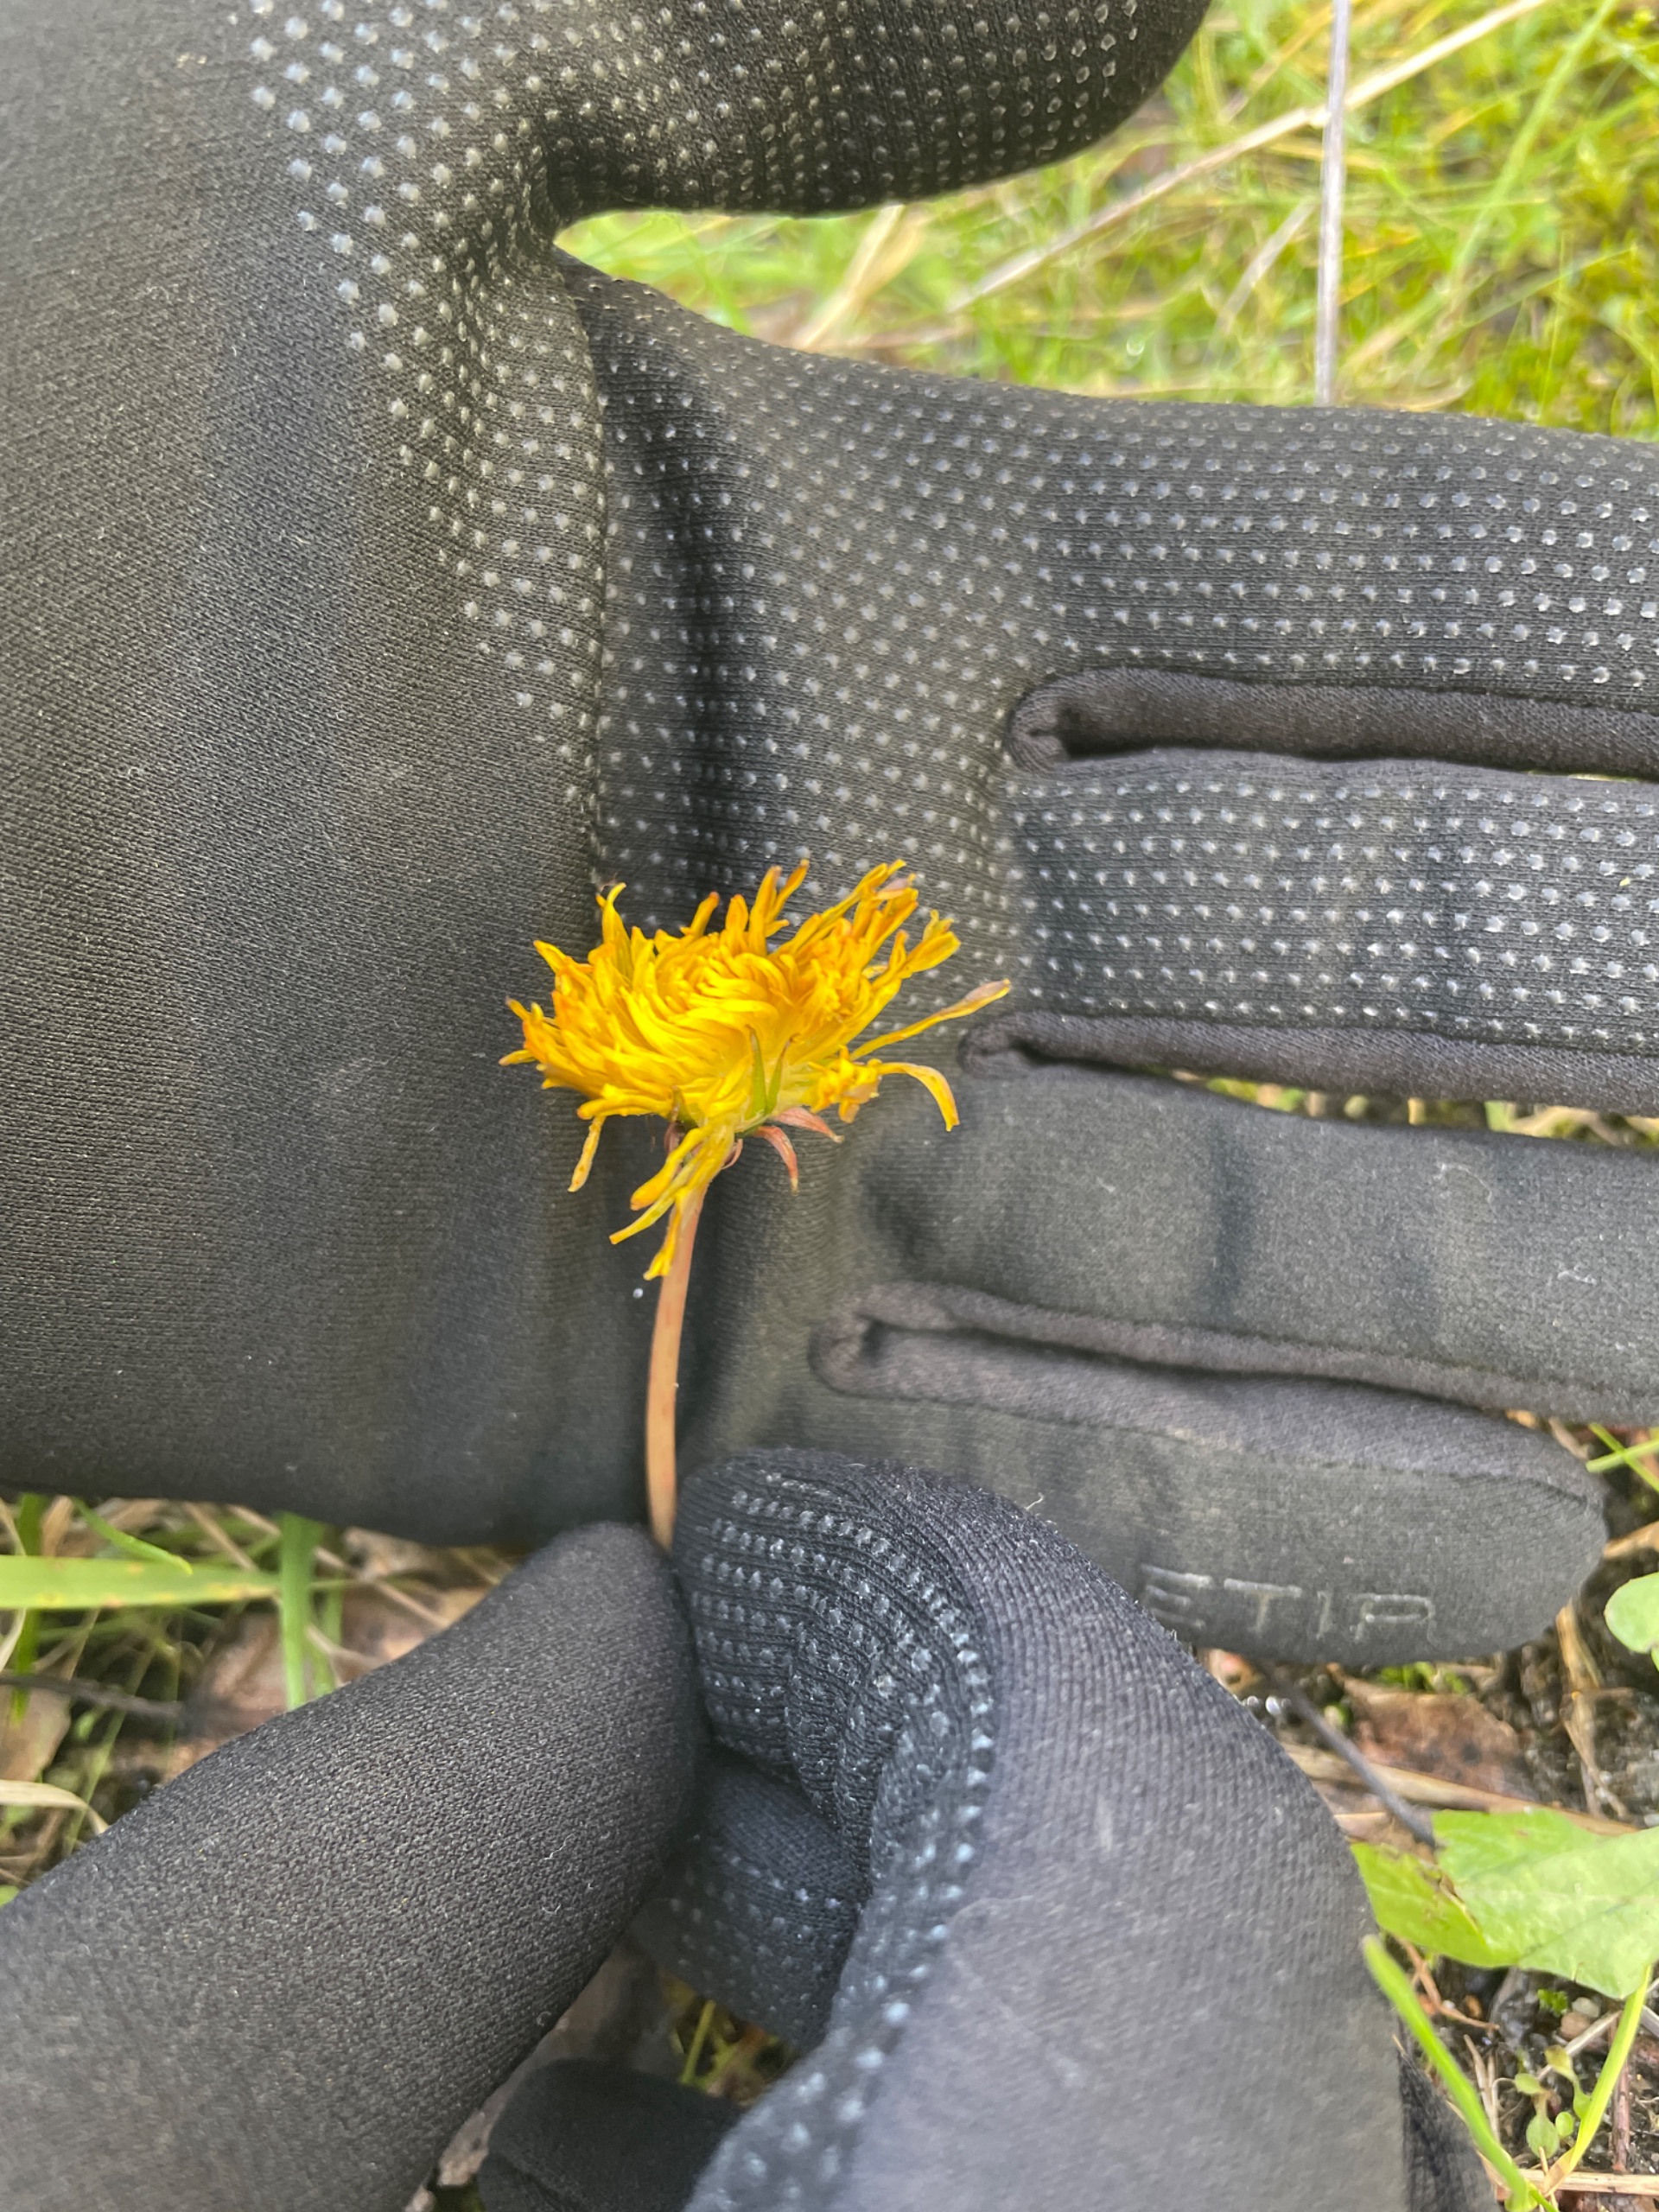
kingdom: Plantae
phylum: Tracheophyta
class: Magnoliopsida
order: Asterales
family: Asteraceae
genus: Taraxacum
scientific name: Taraxacum
